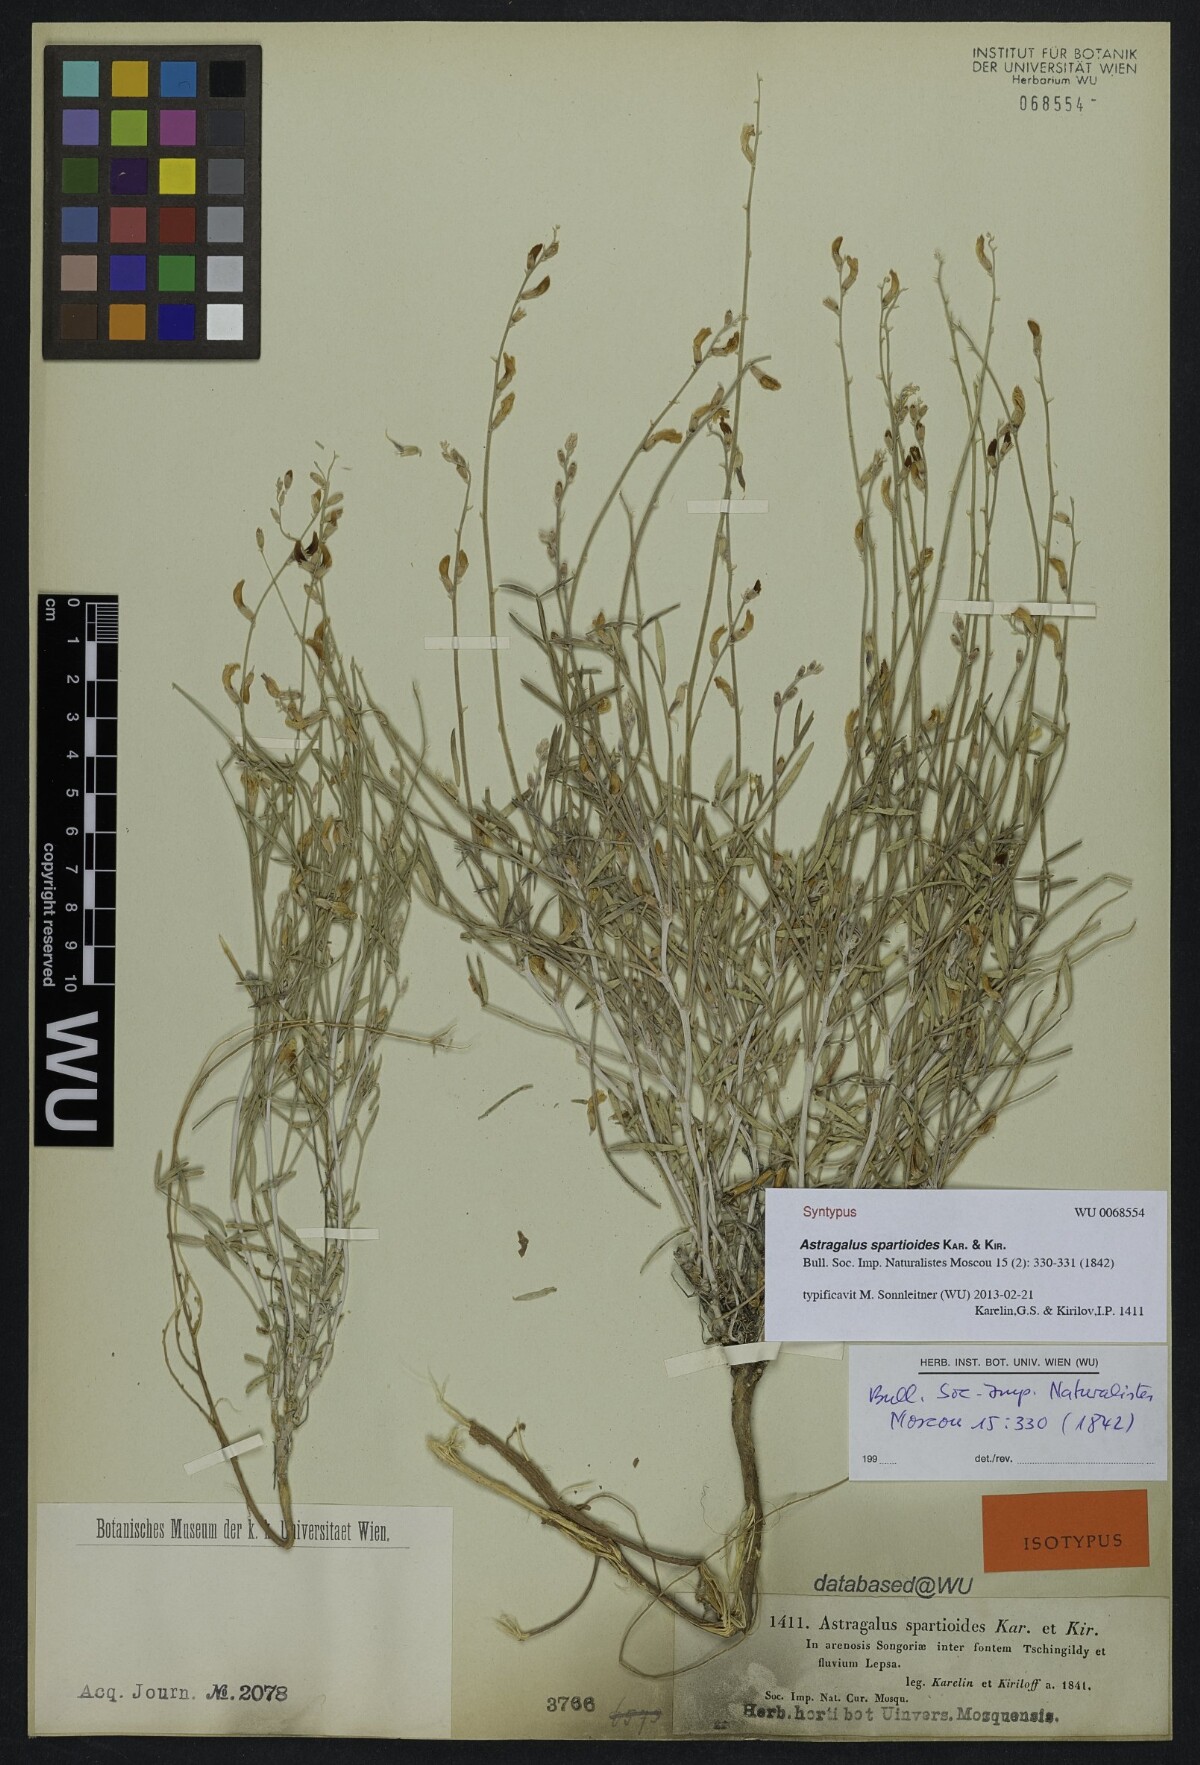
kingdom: Plantae
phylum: Tracheophyta
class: Magnoliopsida
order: Fabales
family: Fabaceae
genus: Astragalus
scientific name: Astragalus spartioides
